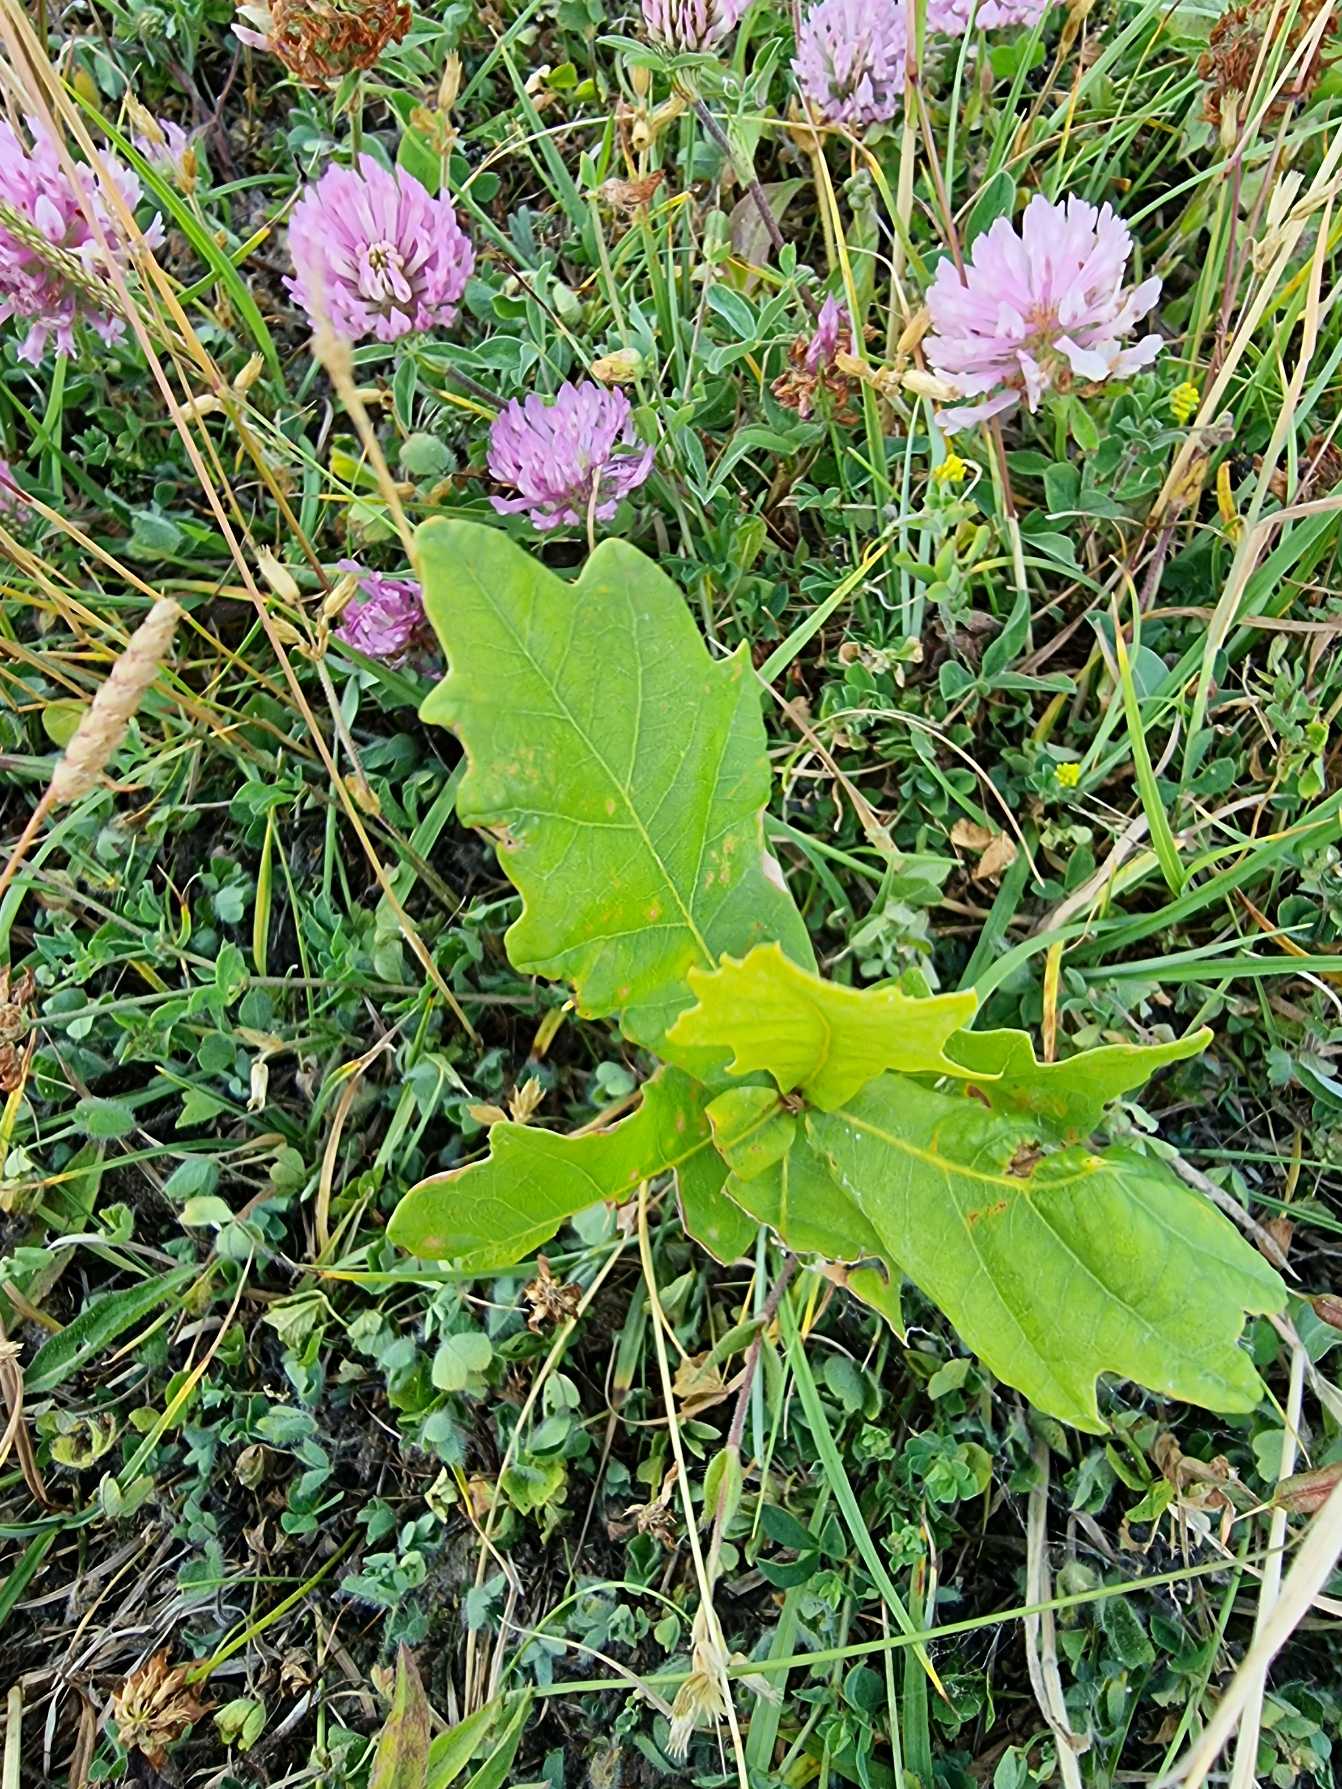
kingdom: Plantae
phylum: Tracheophyta
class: Magnoliopsida
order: Fagales
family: Fagaceae
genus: Quercus
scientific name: Quercus
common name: Egeslægten
